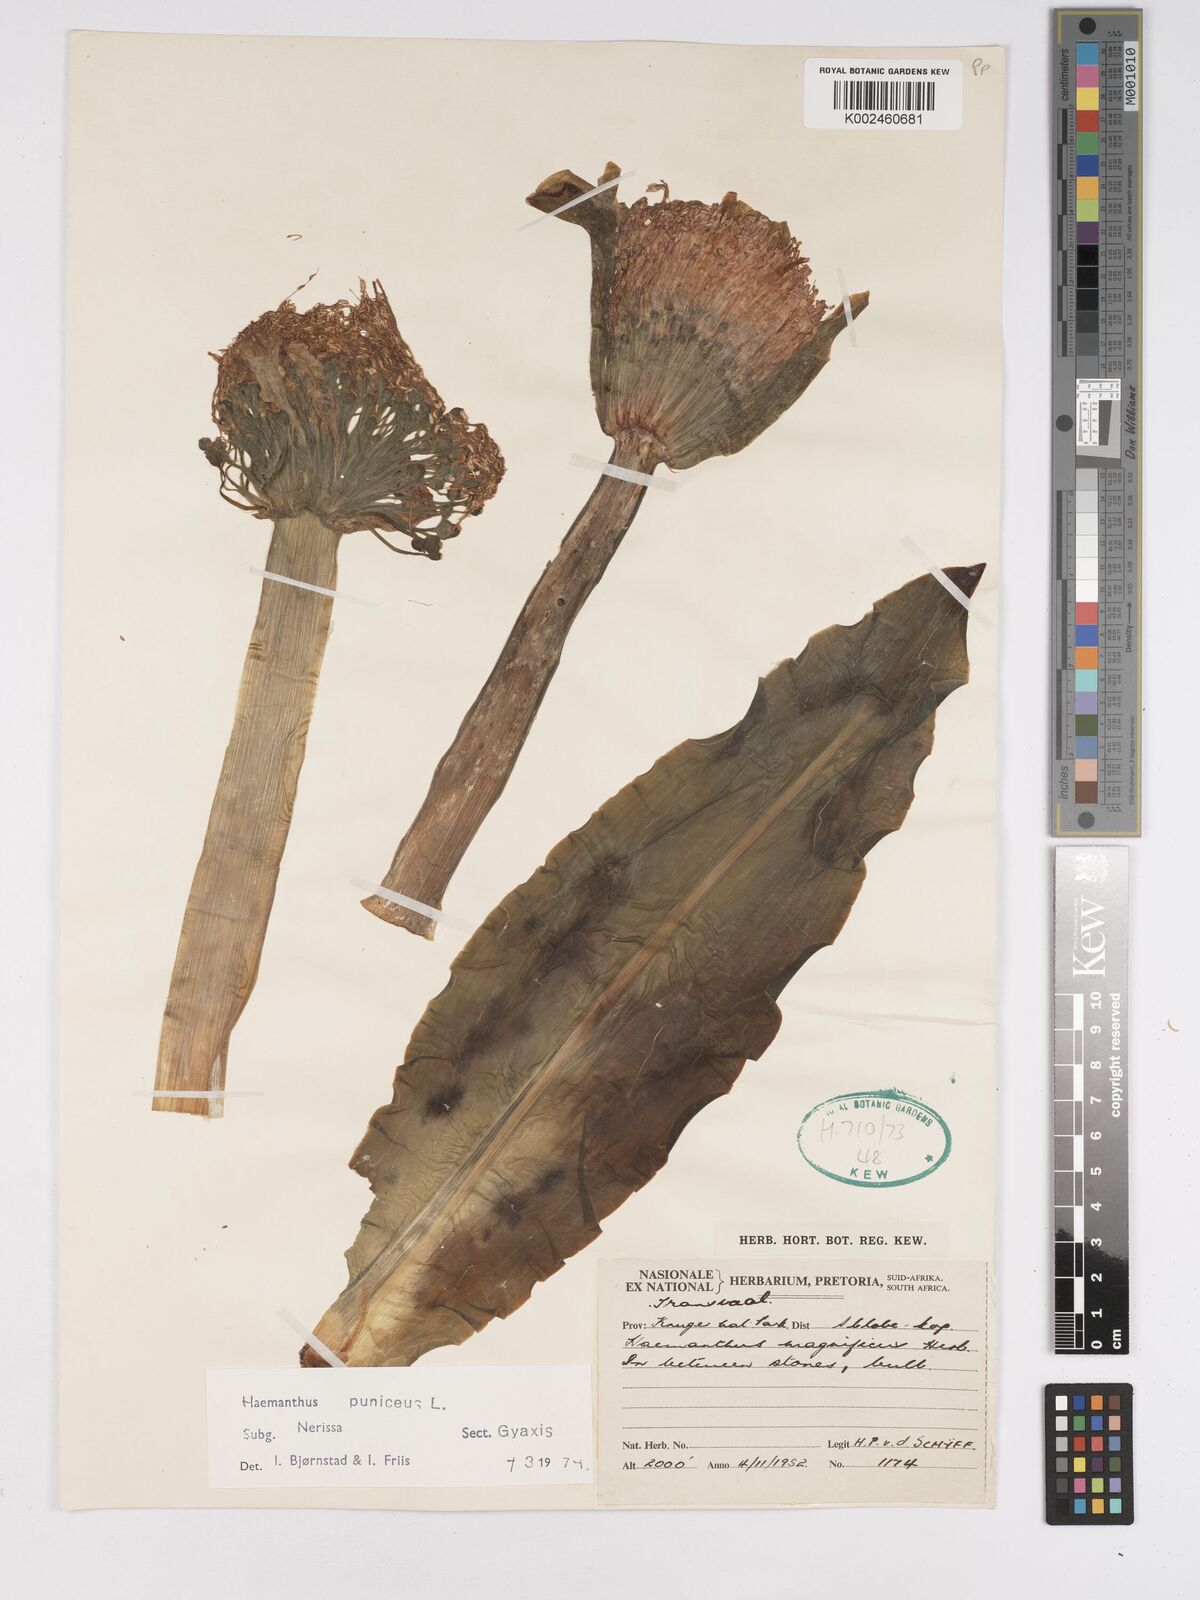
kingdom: Plantae
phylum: Tracheophyta
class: Liliopsida
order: Asparagales
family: Amaryllidaceae
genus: Scadoxus
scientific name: Scadoxus puniceus
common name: Royal-paintbrush
